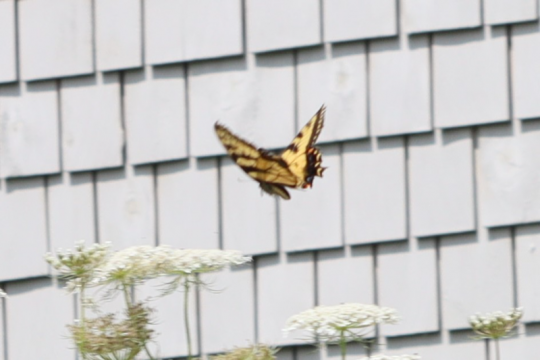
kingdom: Animalia
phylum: Arthropoda
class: Insecta
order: Lepidoptera
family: Papilionidae
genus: Pterourus
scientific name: Pterourus canadensis
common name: Canadian Tiger Swallowtail
